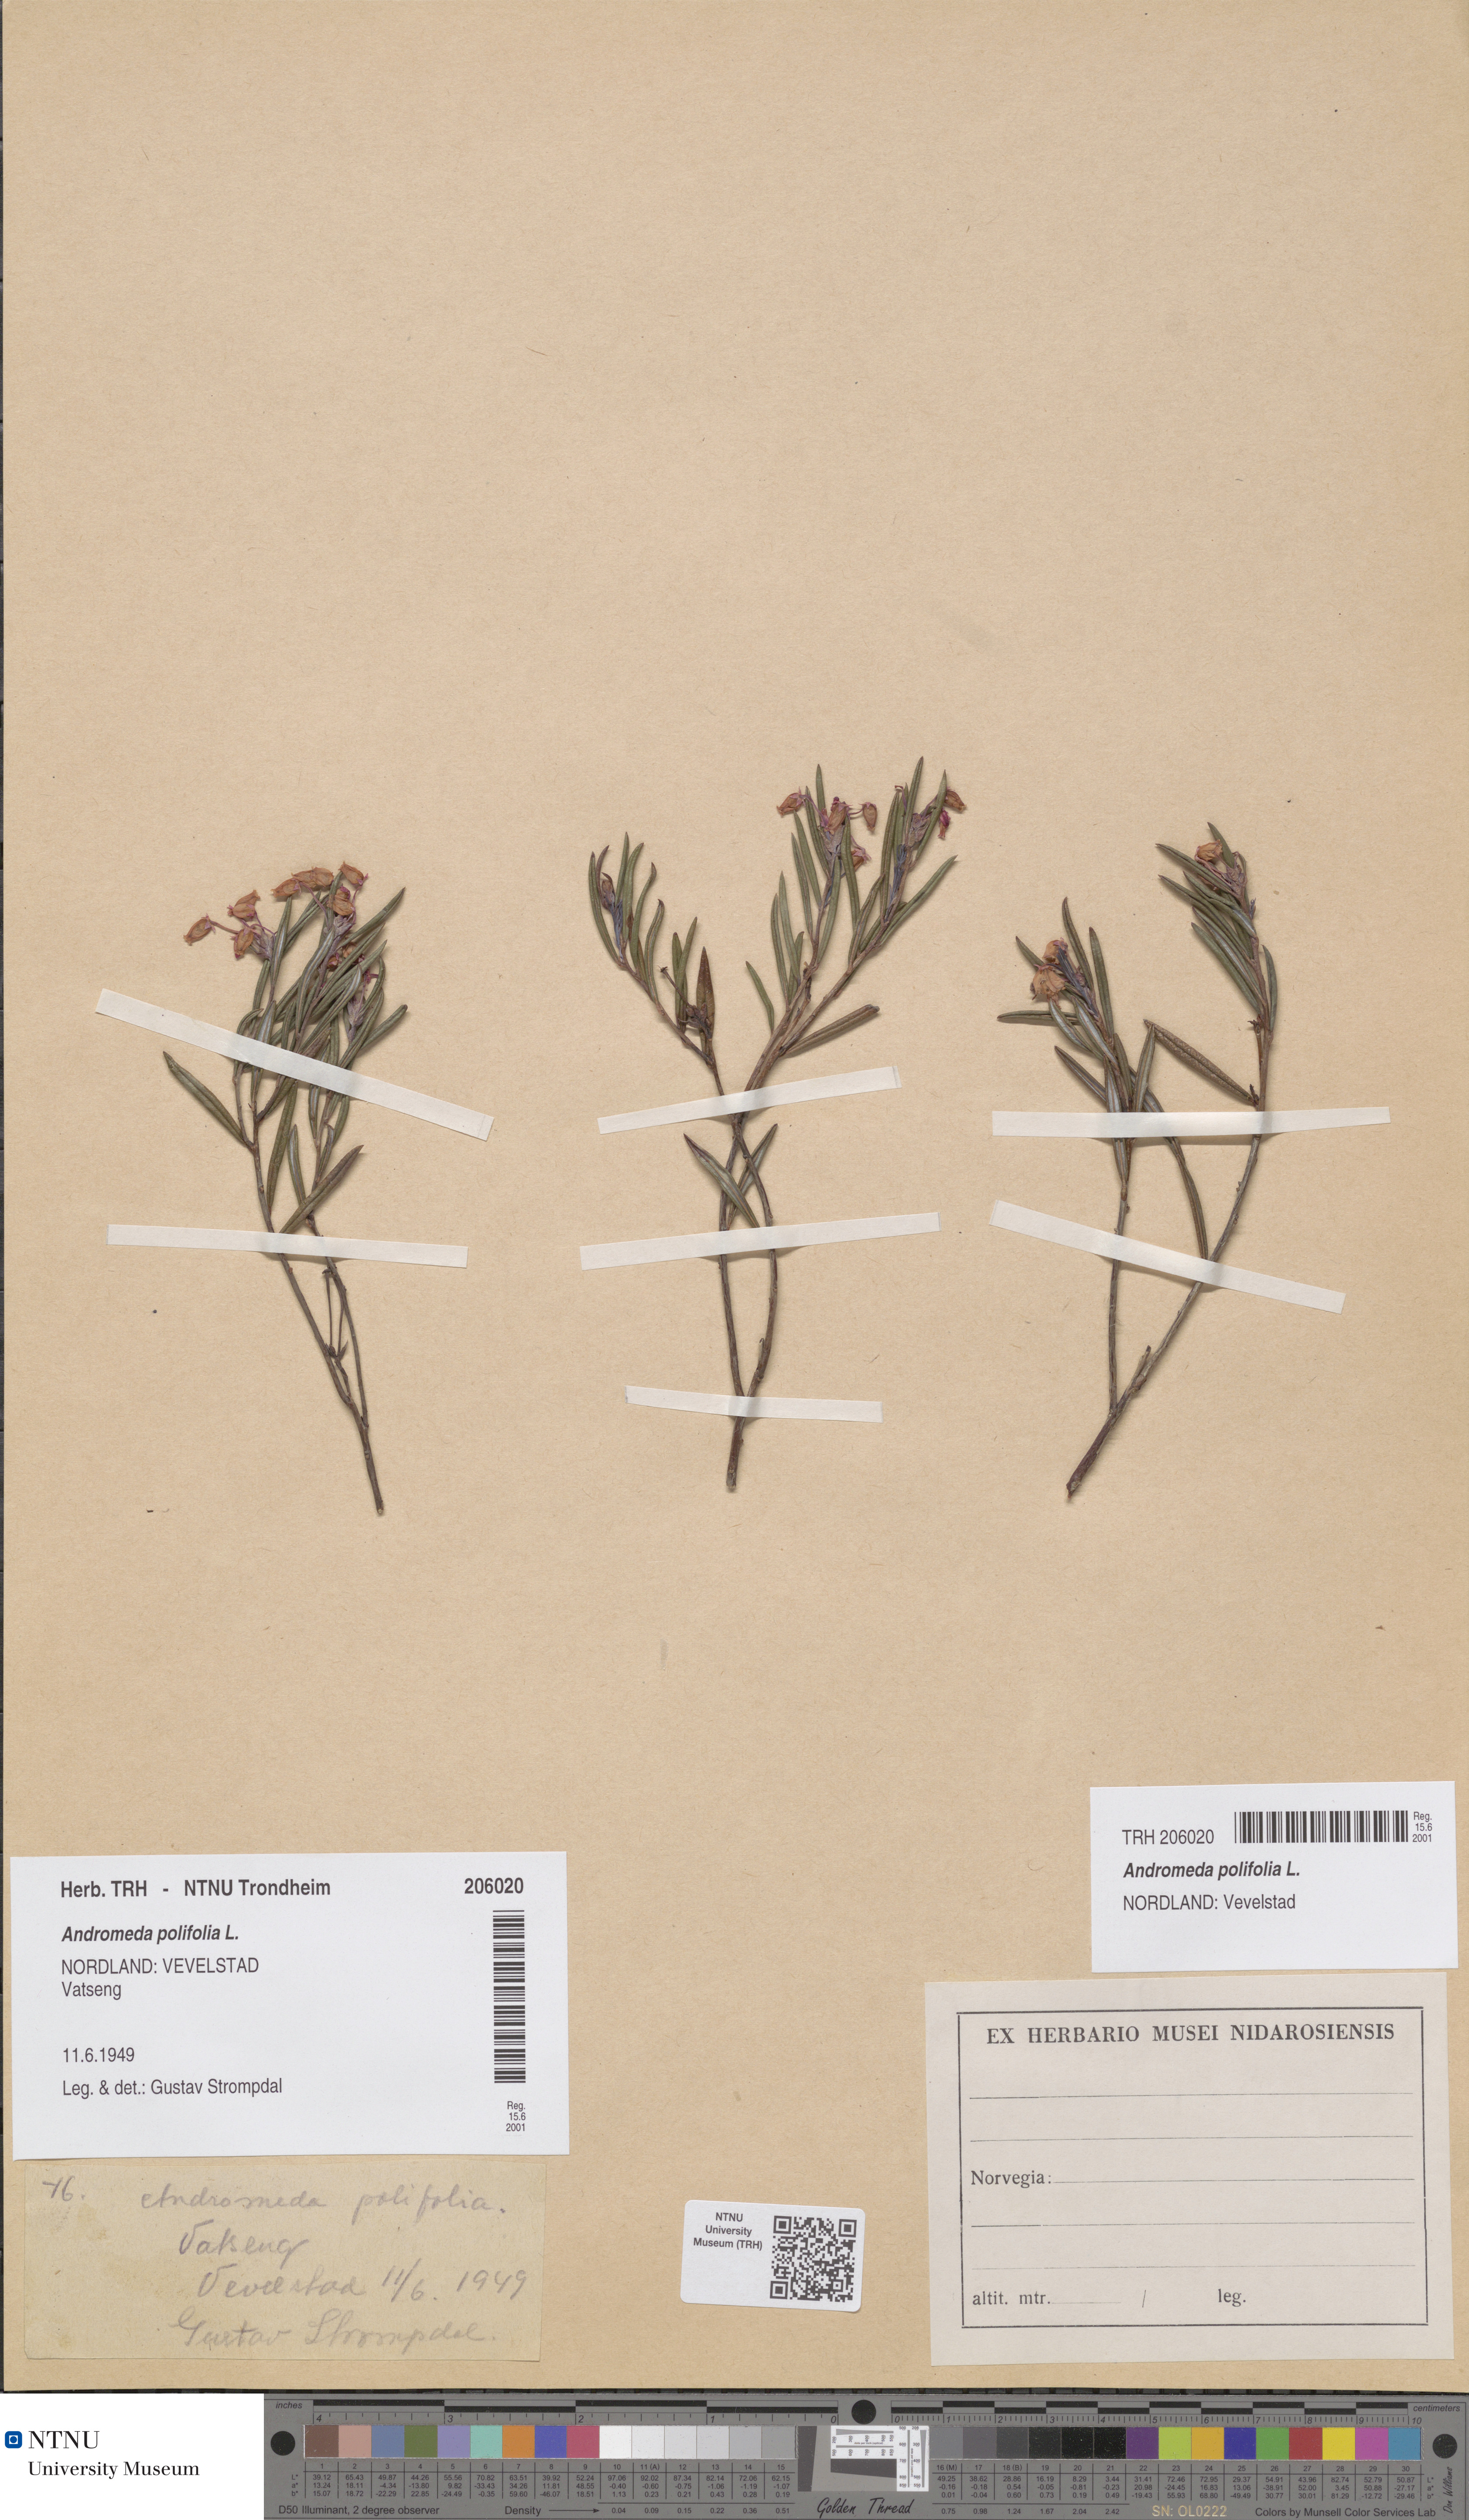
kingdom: Plantae
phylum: Tracheophyta
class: Magnoliopsida
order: Ericales
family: Ericaceae
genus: Andromeda
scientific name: Andromeda polifolia
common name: Bog-rosemary
